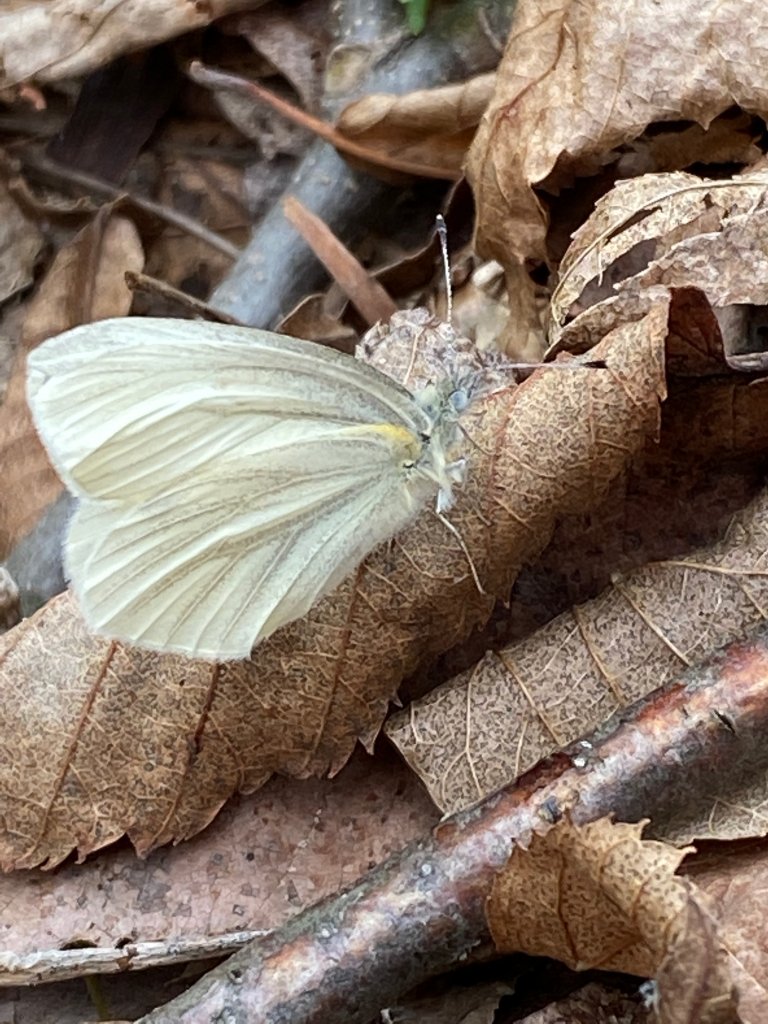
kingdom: Animalia
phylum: Arthropoda
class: Insecta
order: Lepidoptera
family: Pieridae
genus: Pieris
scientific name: Pieris virginiensis
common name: West Virginia White
